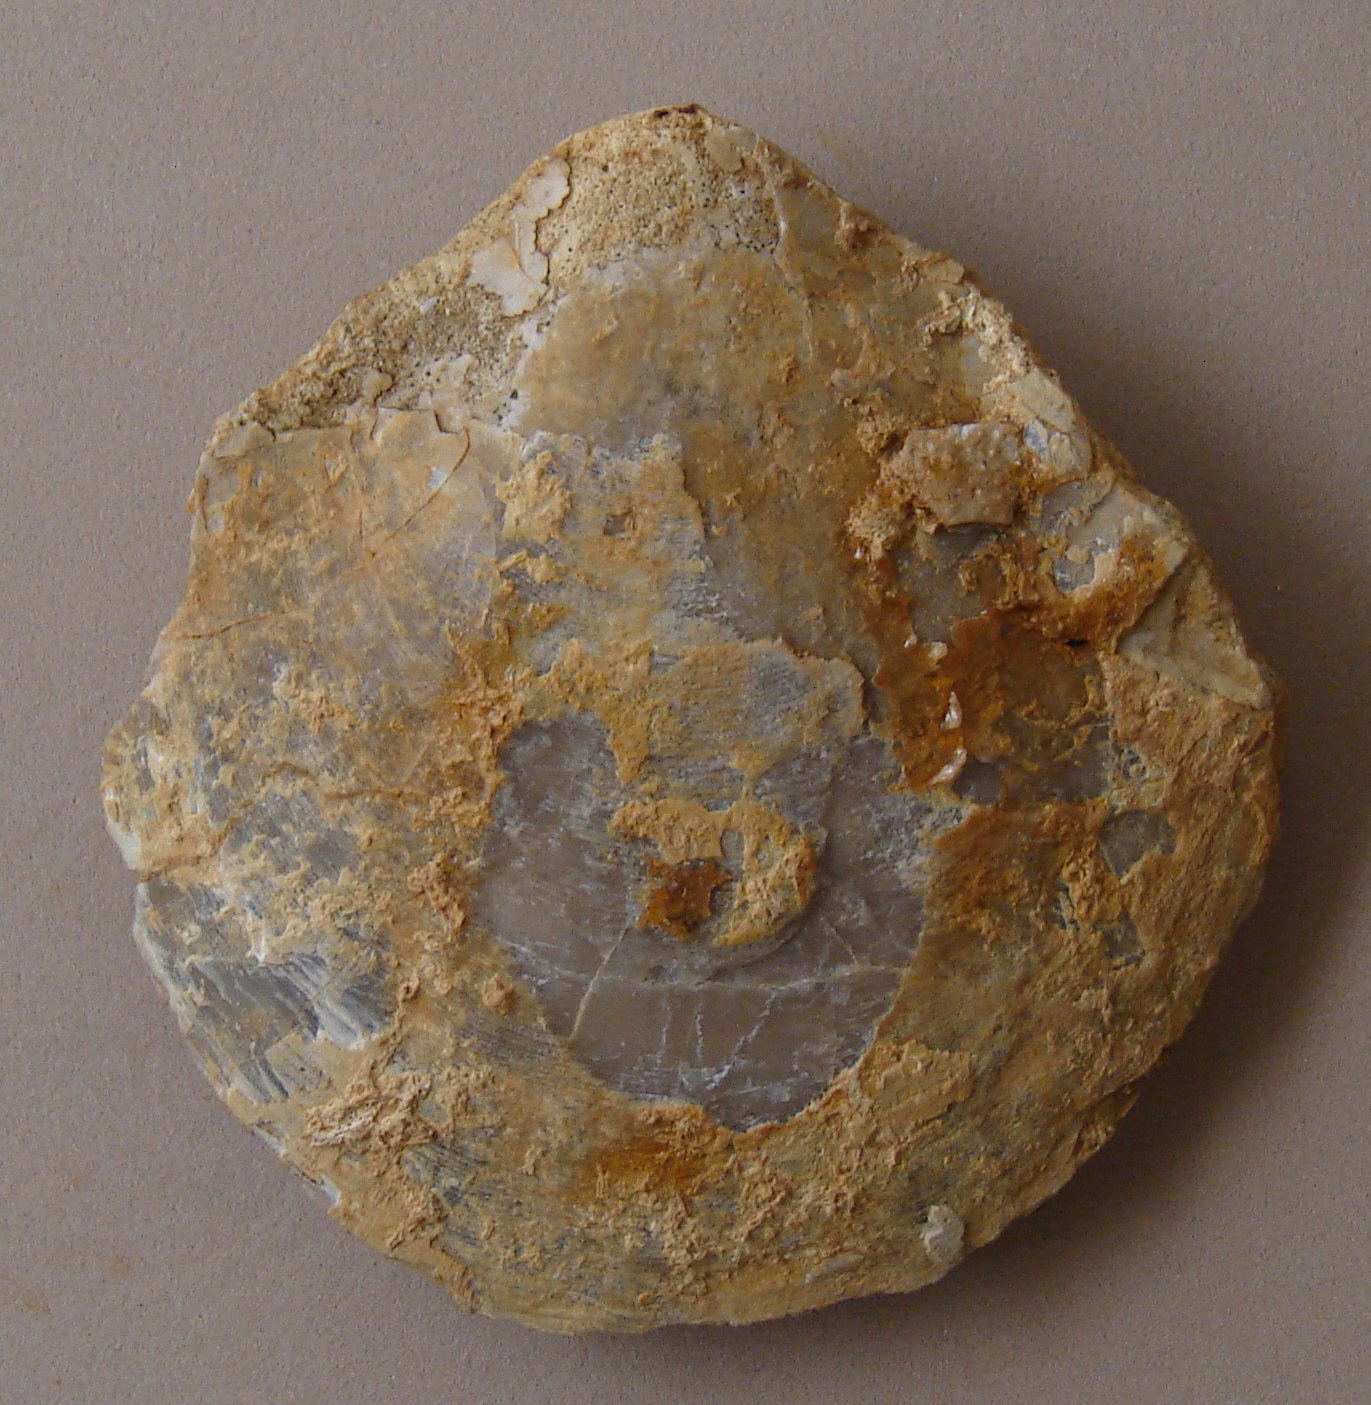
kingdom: Animalia
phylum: Mollusca
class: Bivalvia
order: Pectinida
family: Entoliidae
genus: Entolium
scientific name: Entolium corneolum
